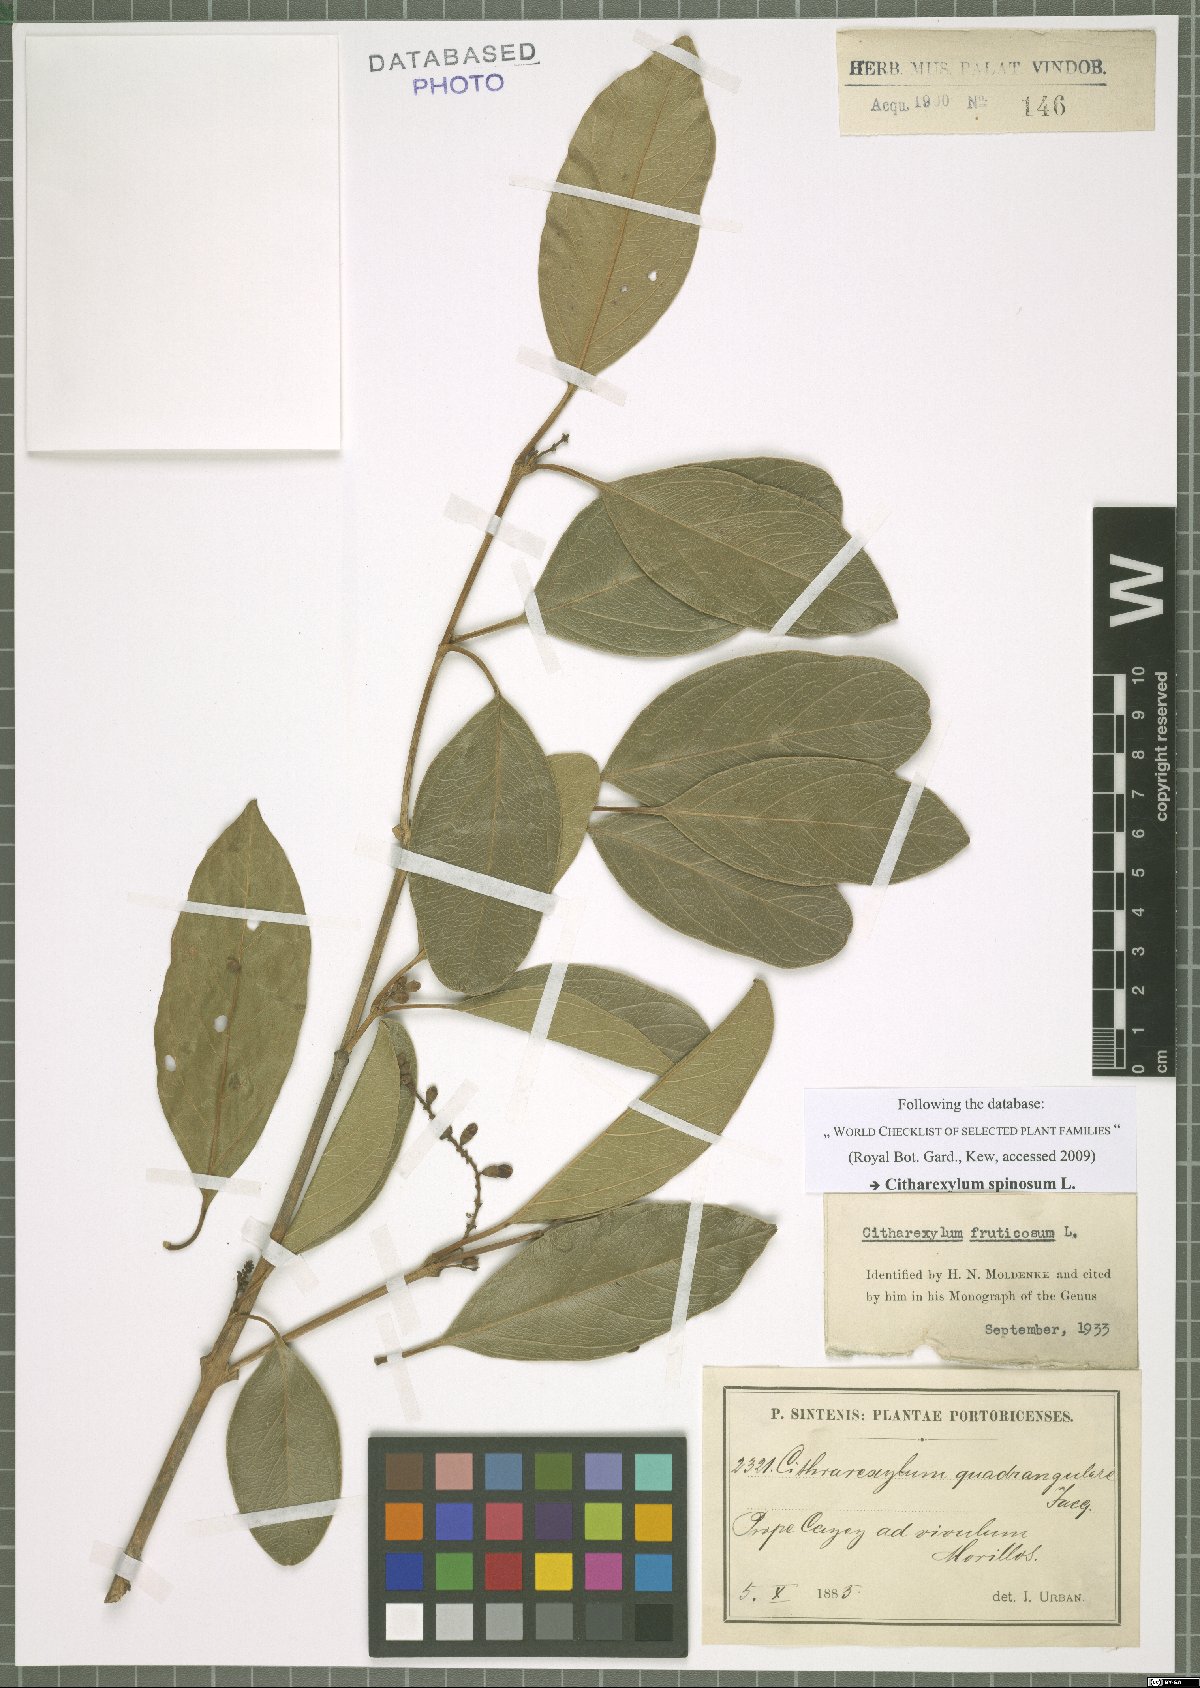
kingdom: Plantae
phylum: Tracheophyta
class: Magnoliopsida
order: Lamiales
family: Verbenaceae
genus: Citharexylum
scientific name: Citharexylum spinosum
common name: Fiddlewood
